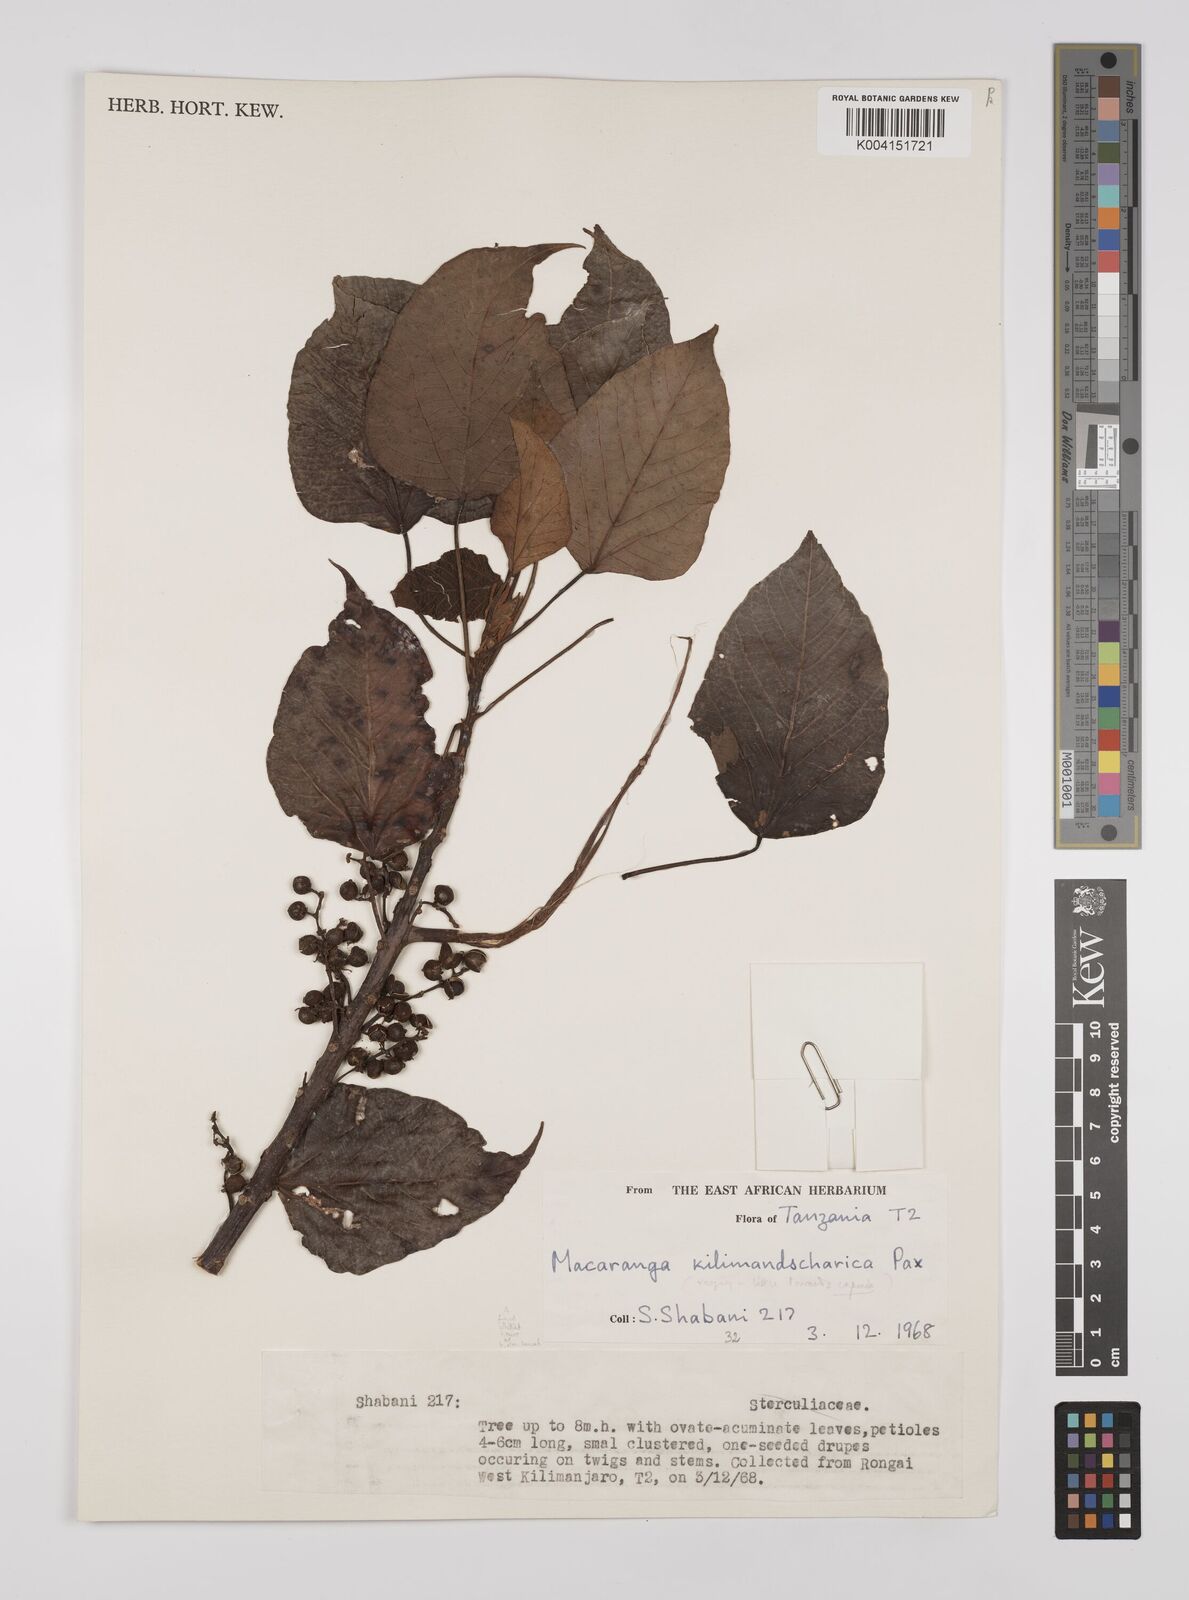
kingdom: Plantae
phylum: Tracheophyta
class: Magnoliopsida
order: Malpighiales
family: Euphorbiaceae
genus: Macaranga
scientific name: Macaranga kilimandscharica
